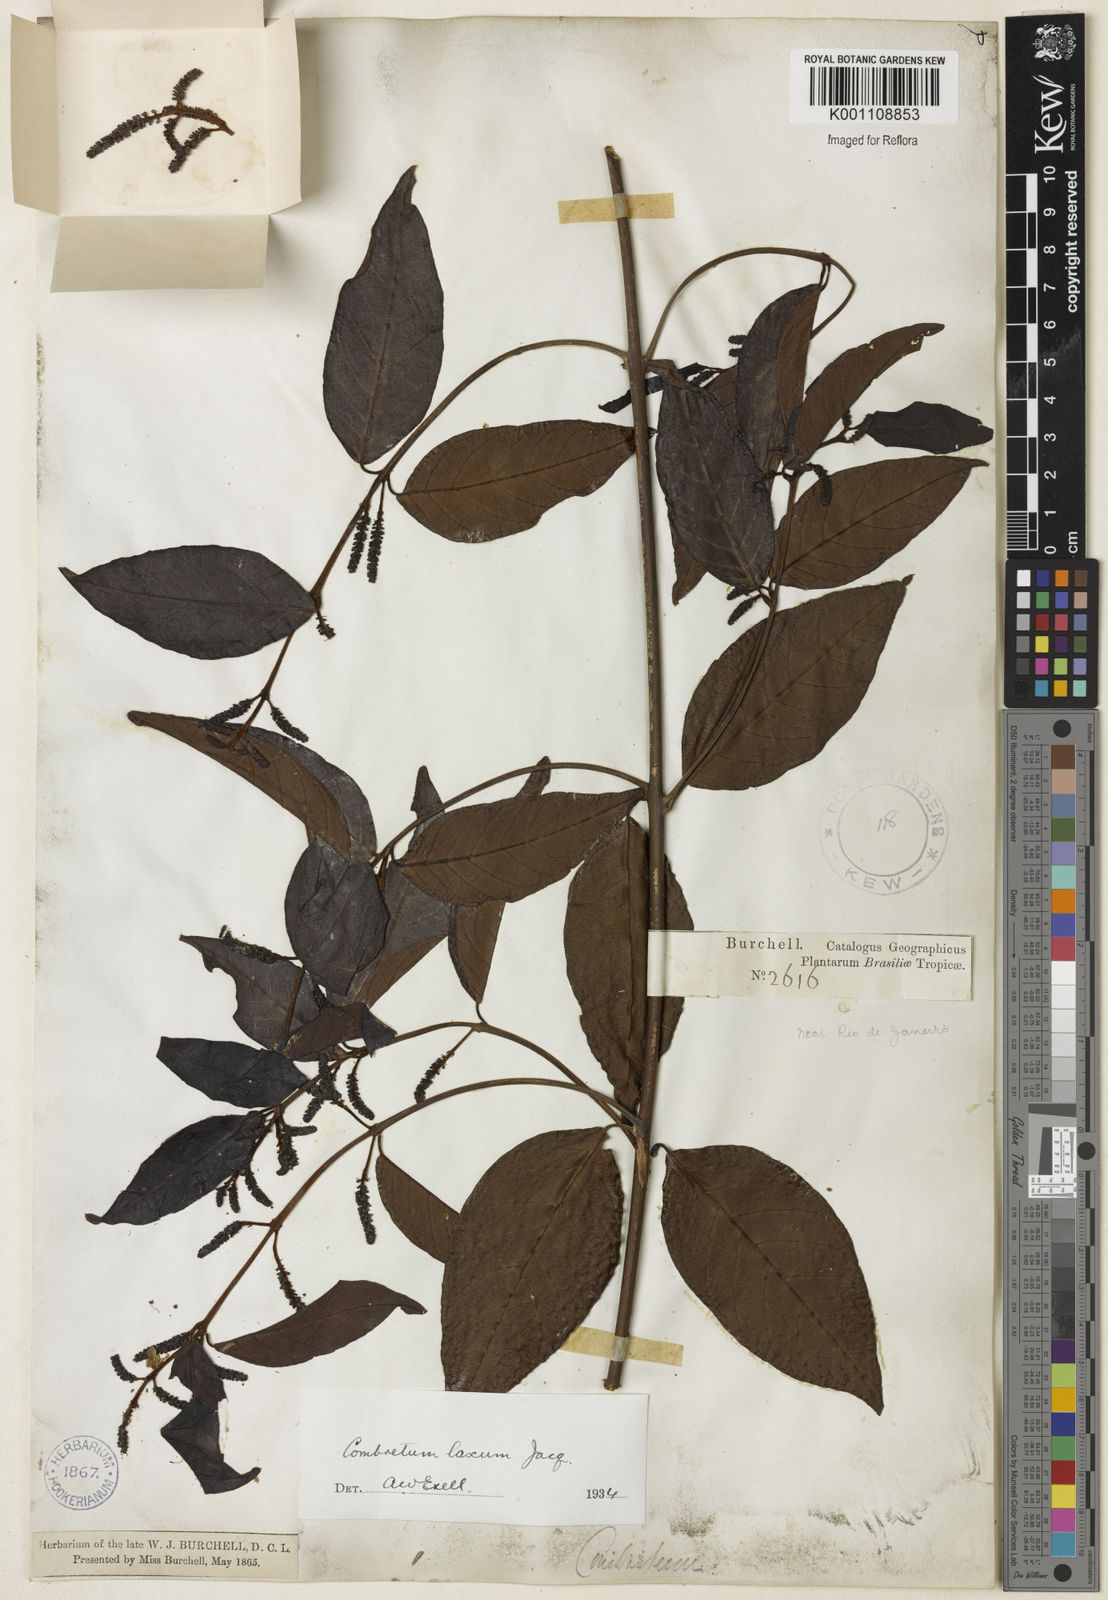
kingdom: Plantae
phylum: Tracheophyta
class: Magnoliopsida
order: Myrtales
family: Combretaceae
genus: Combretum
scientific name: Combretum laxum
